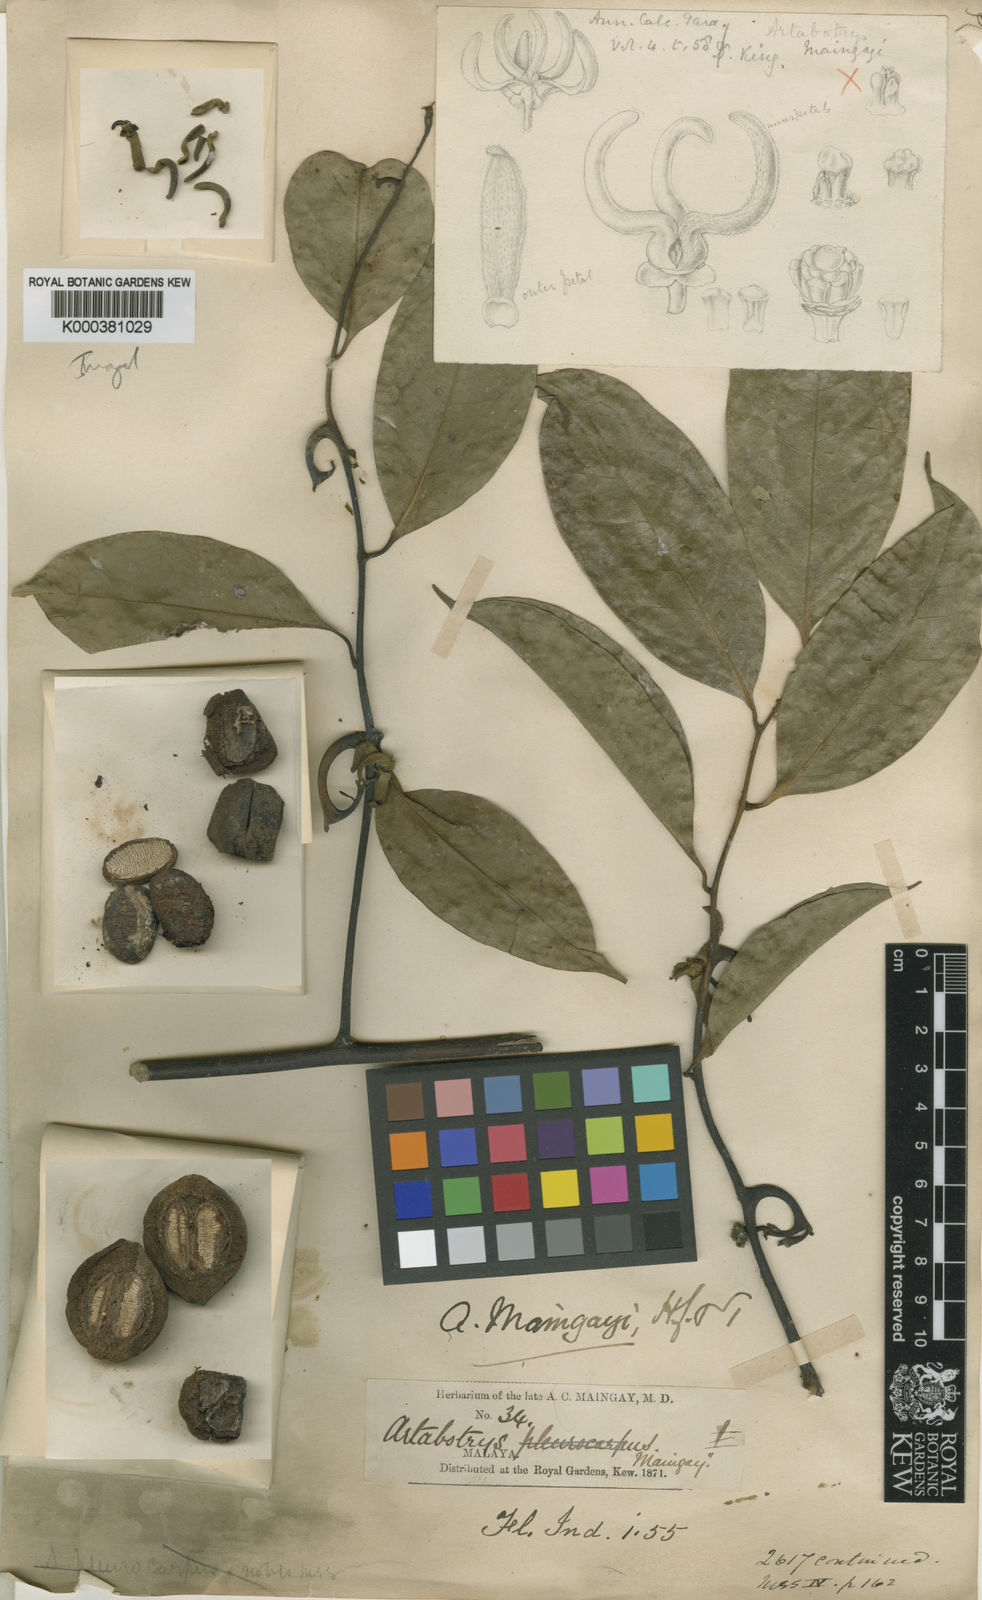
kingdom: Plantae
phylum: Tracheophyta
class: Magnoliopsida
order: Magnoliales
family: Annonaceae
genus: Artabotrys
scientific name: Artabotrys maingayi
